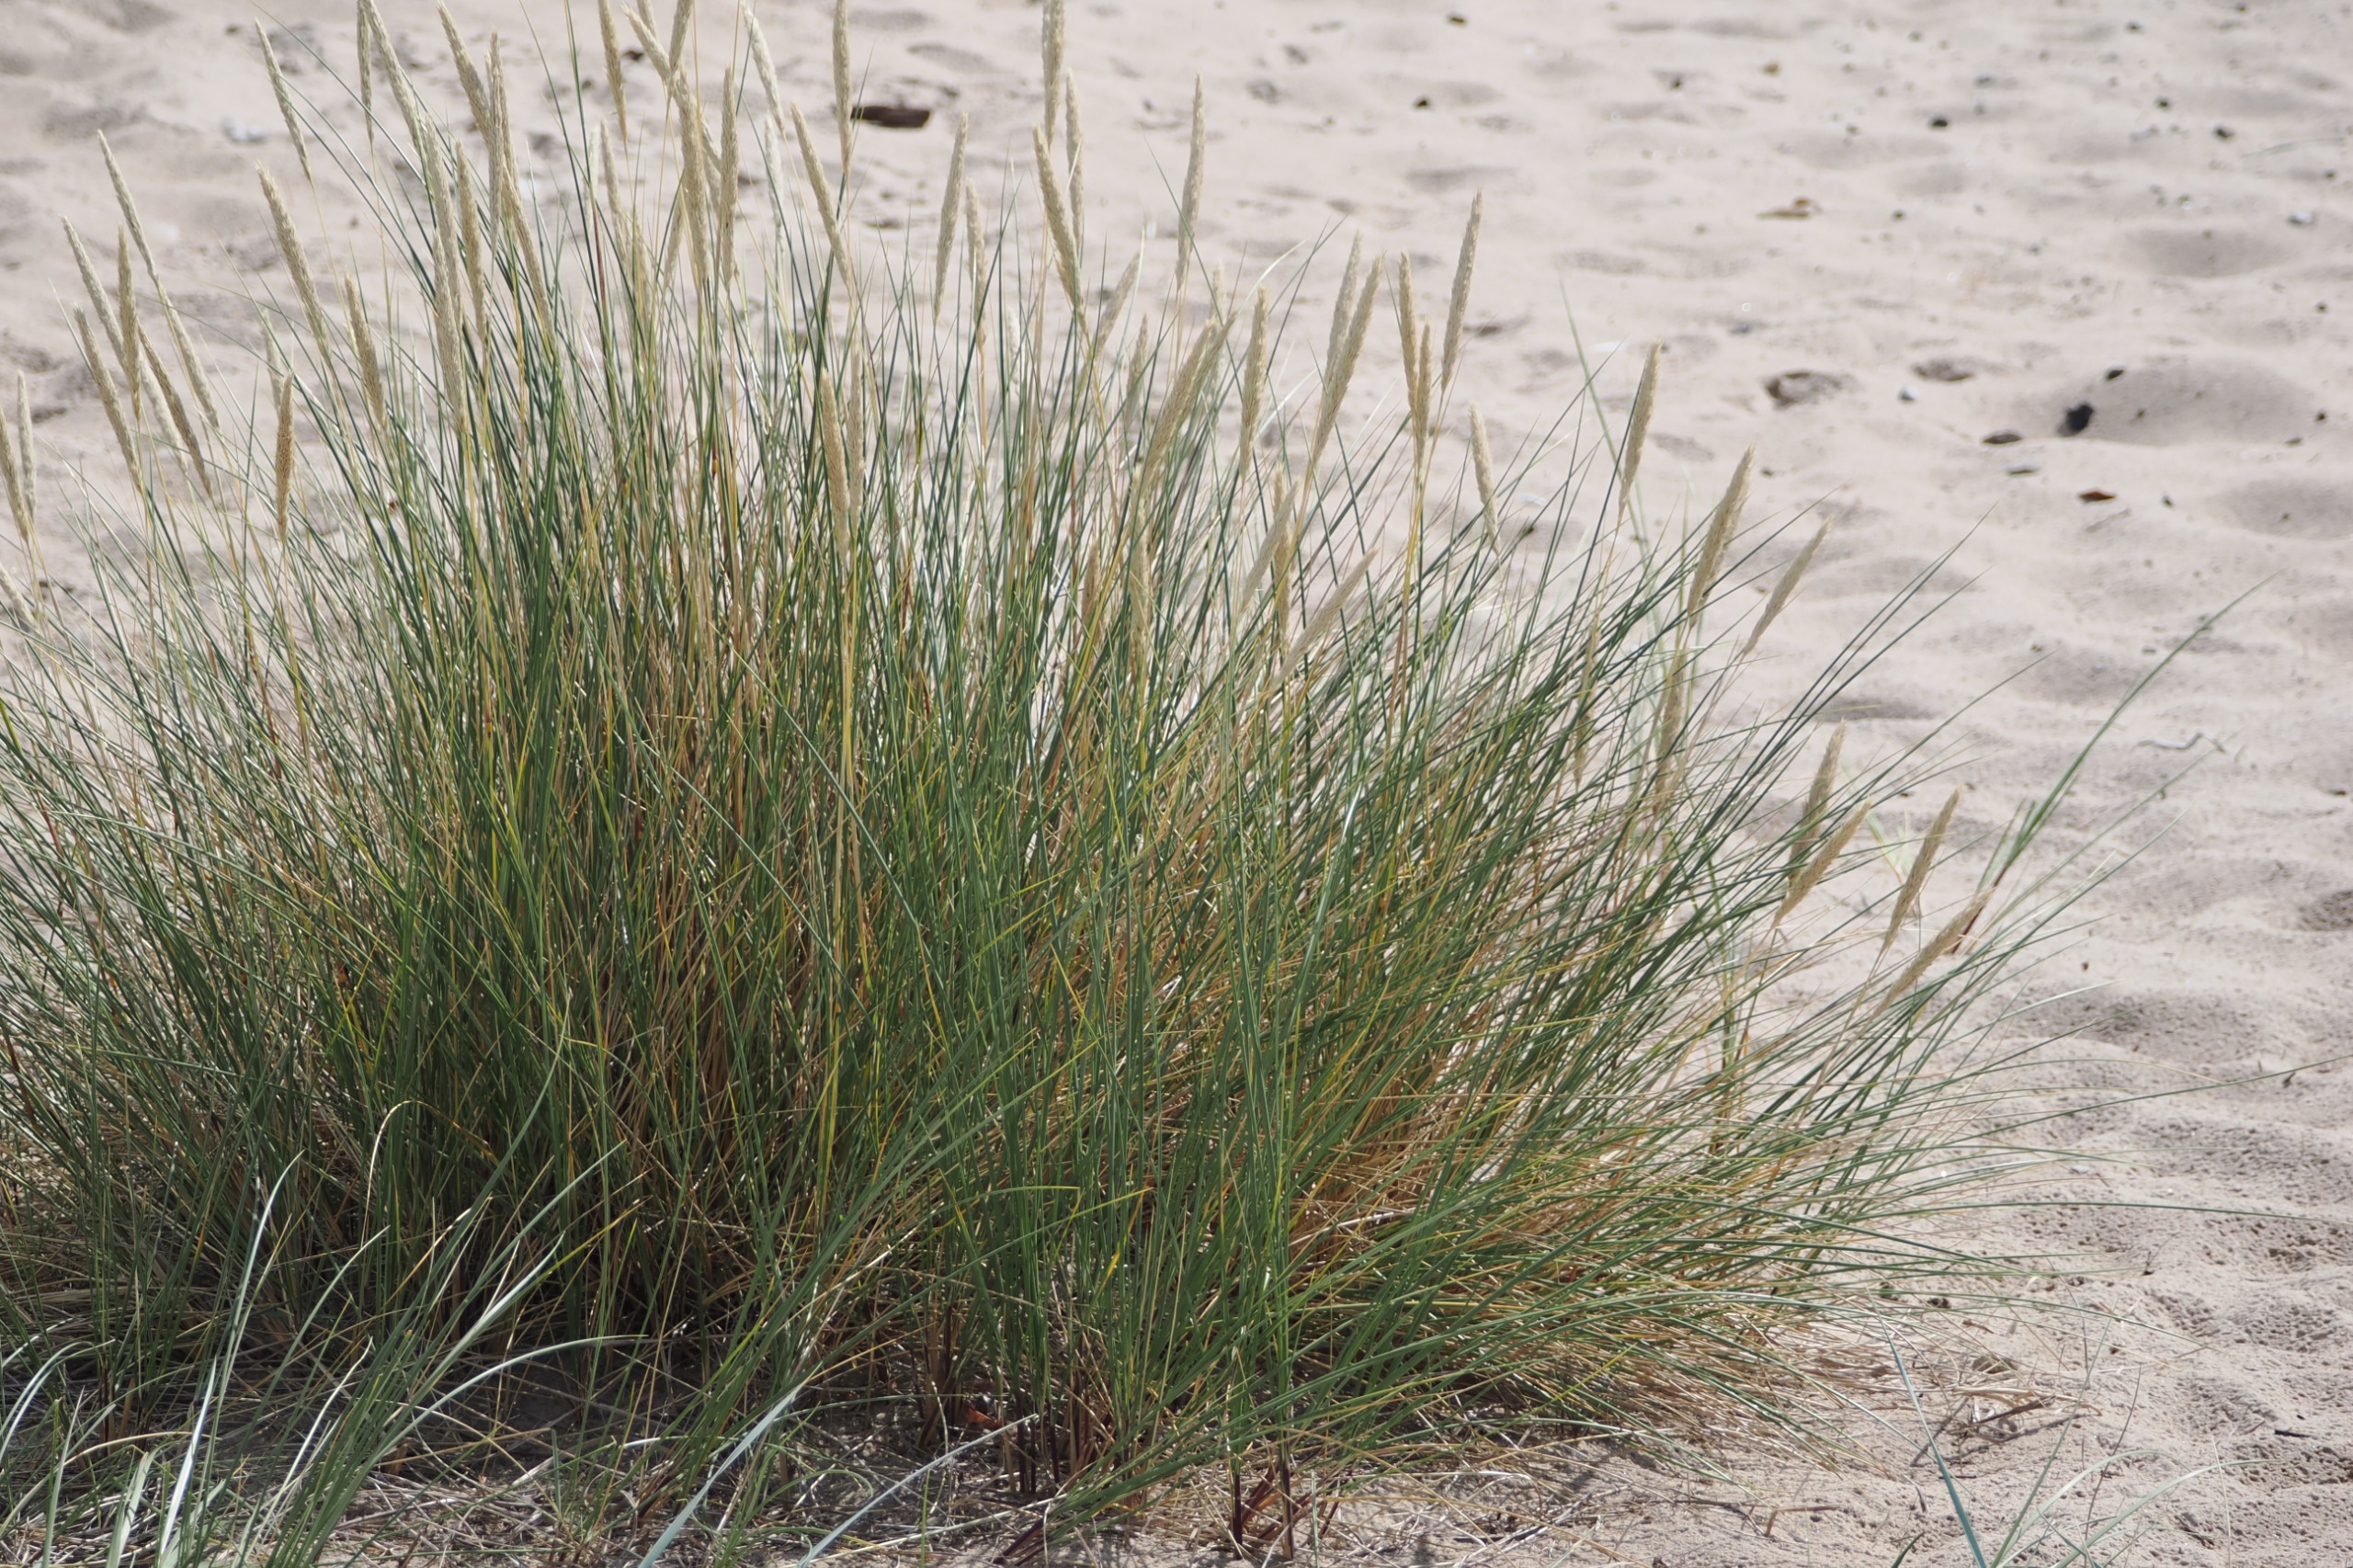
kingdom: Plantae
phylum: Tracheophyta
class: Liliopsida
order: Poales
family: Poaceae
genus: Calamagrostis
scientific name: Calamagrostis arenaria
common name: Sand-hjælme
